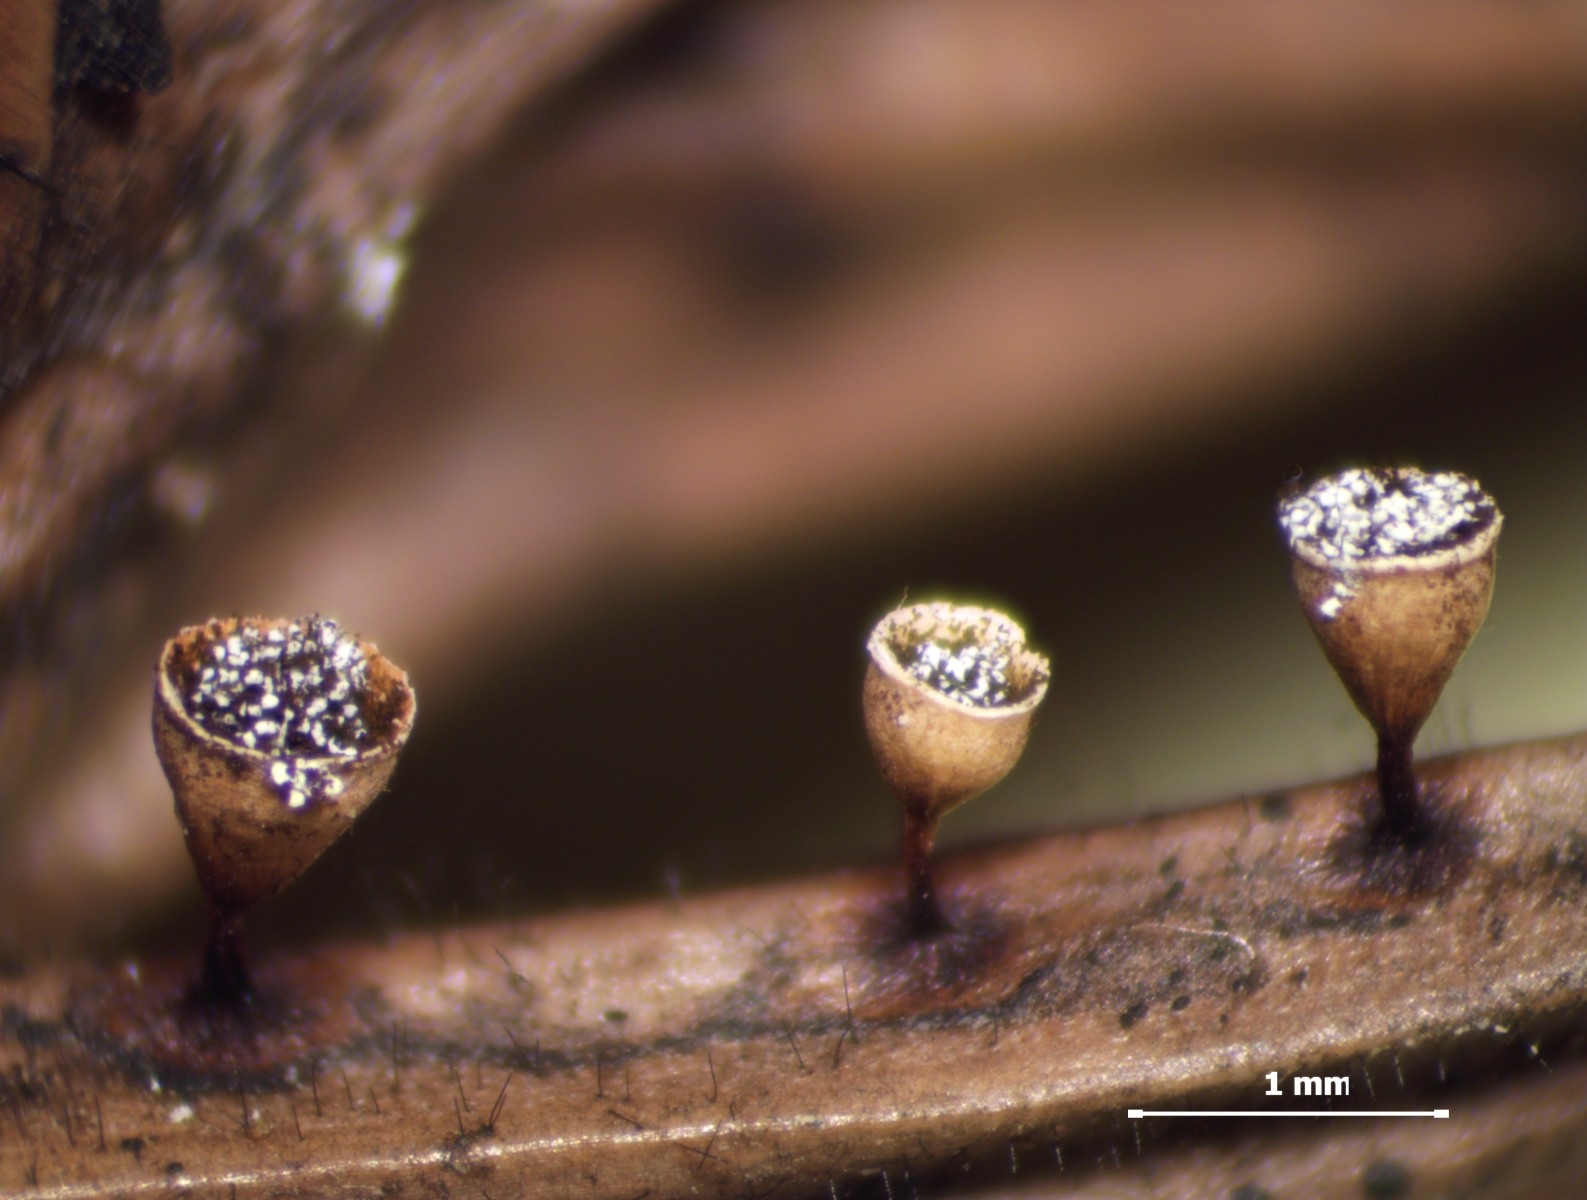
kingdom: Protozoa
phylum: Mycetozoa
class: Myxomycetes
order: Physarales
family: Physaraceae
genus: Craterium
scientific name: Craterium minutum
